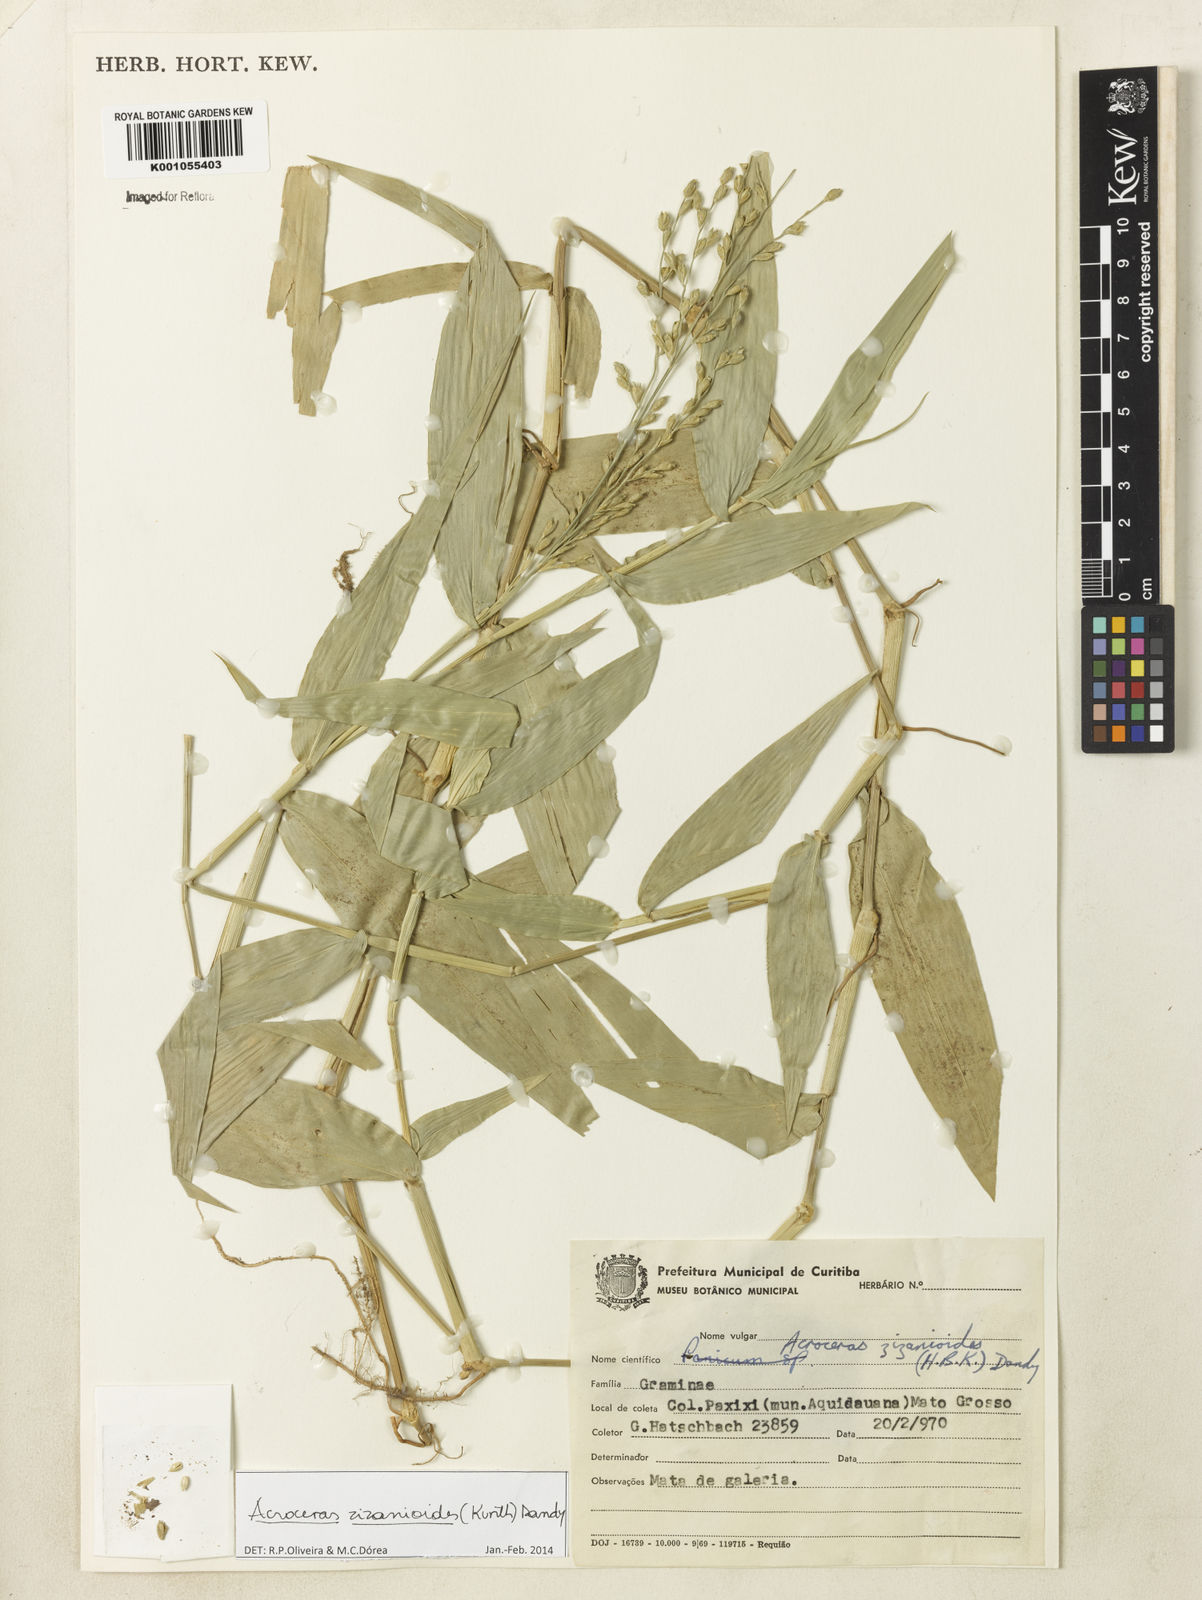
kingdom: Plantae
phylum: Tracheophyta
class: Liliopsida
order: Poales
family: Poaceae
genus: Acroceras
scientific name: Acroceras zizanioides
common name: Oat grass
